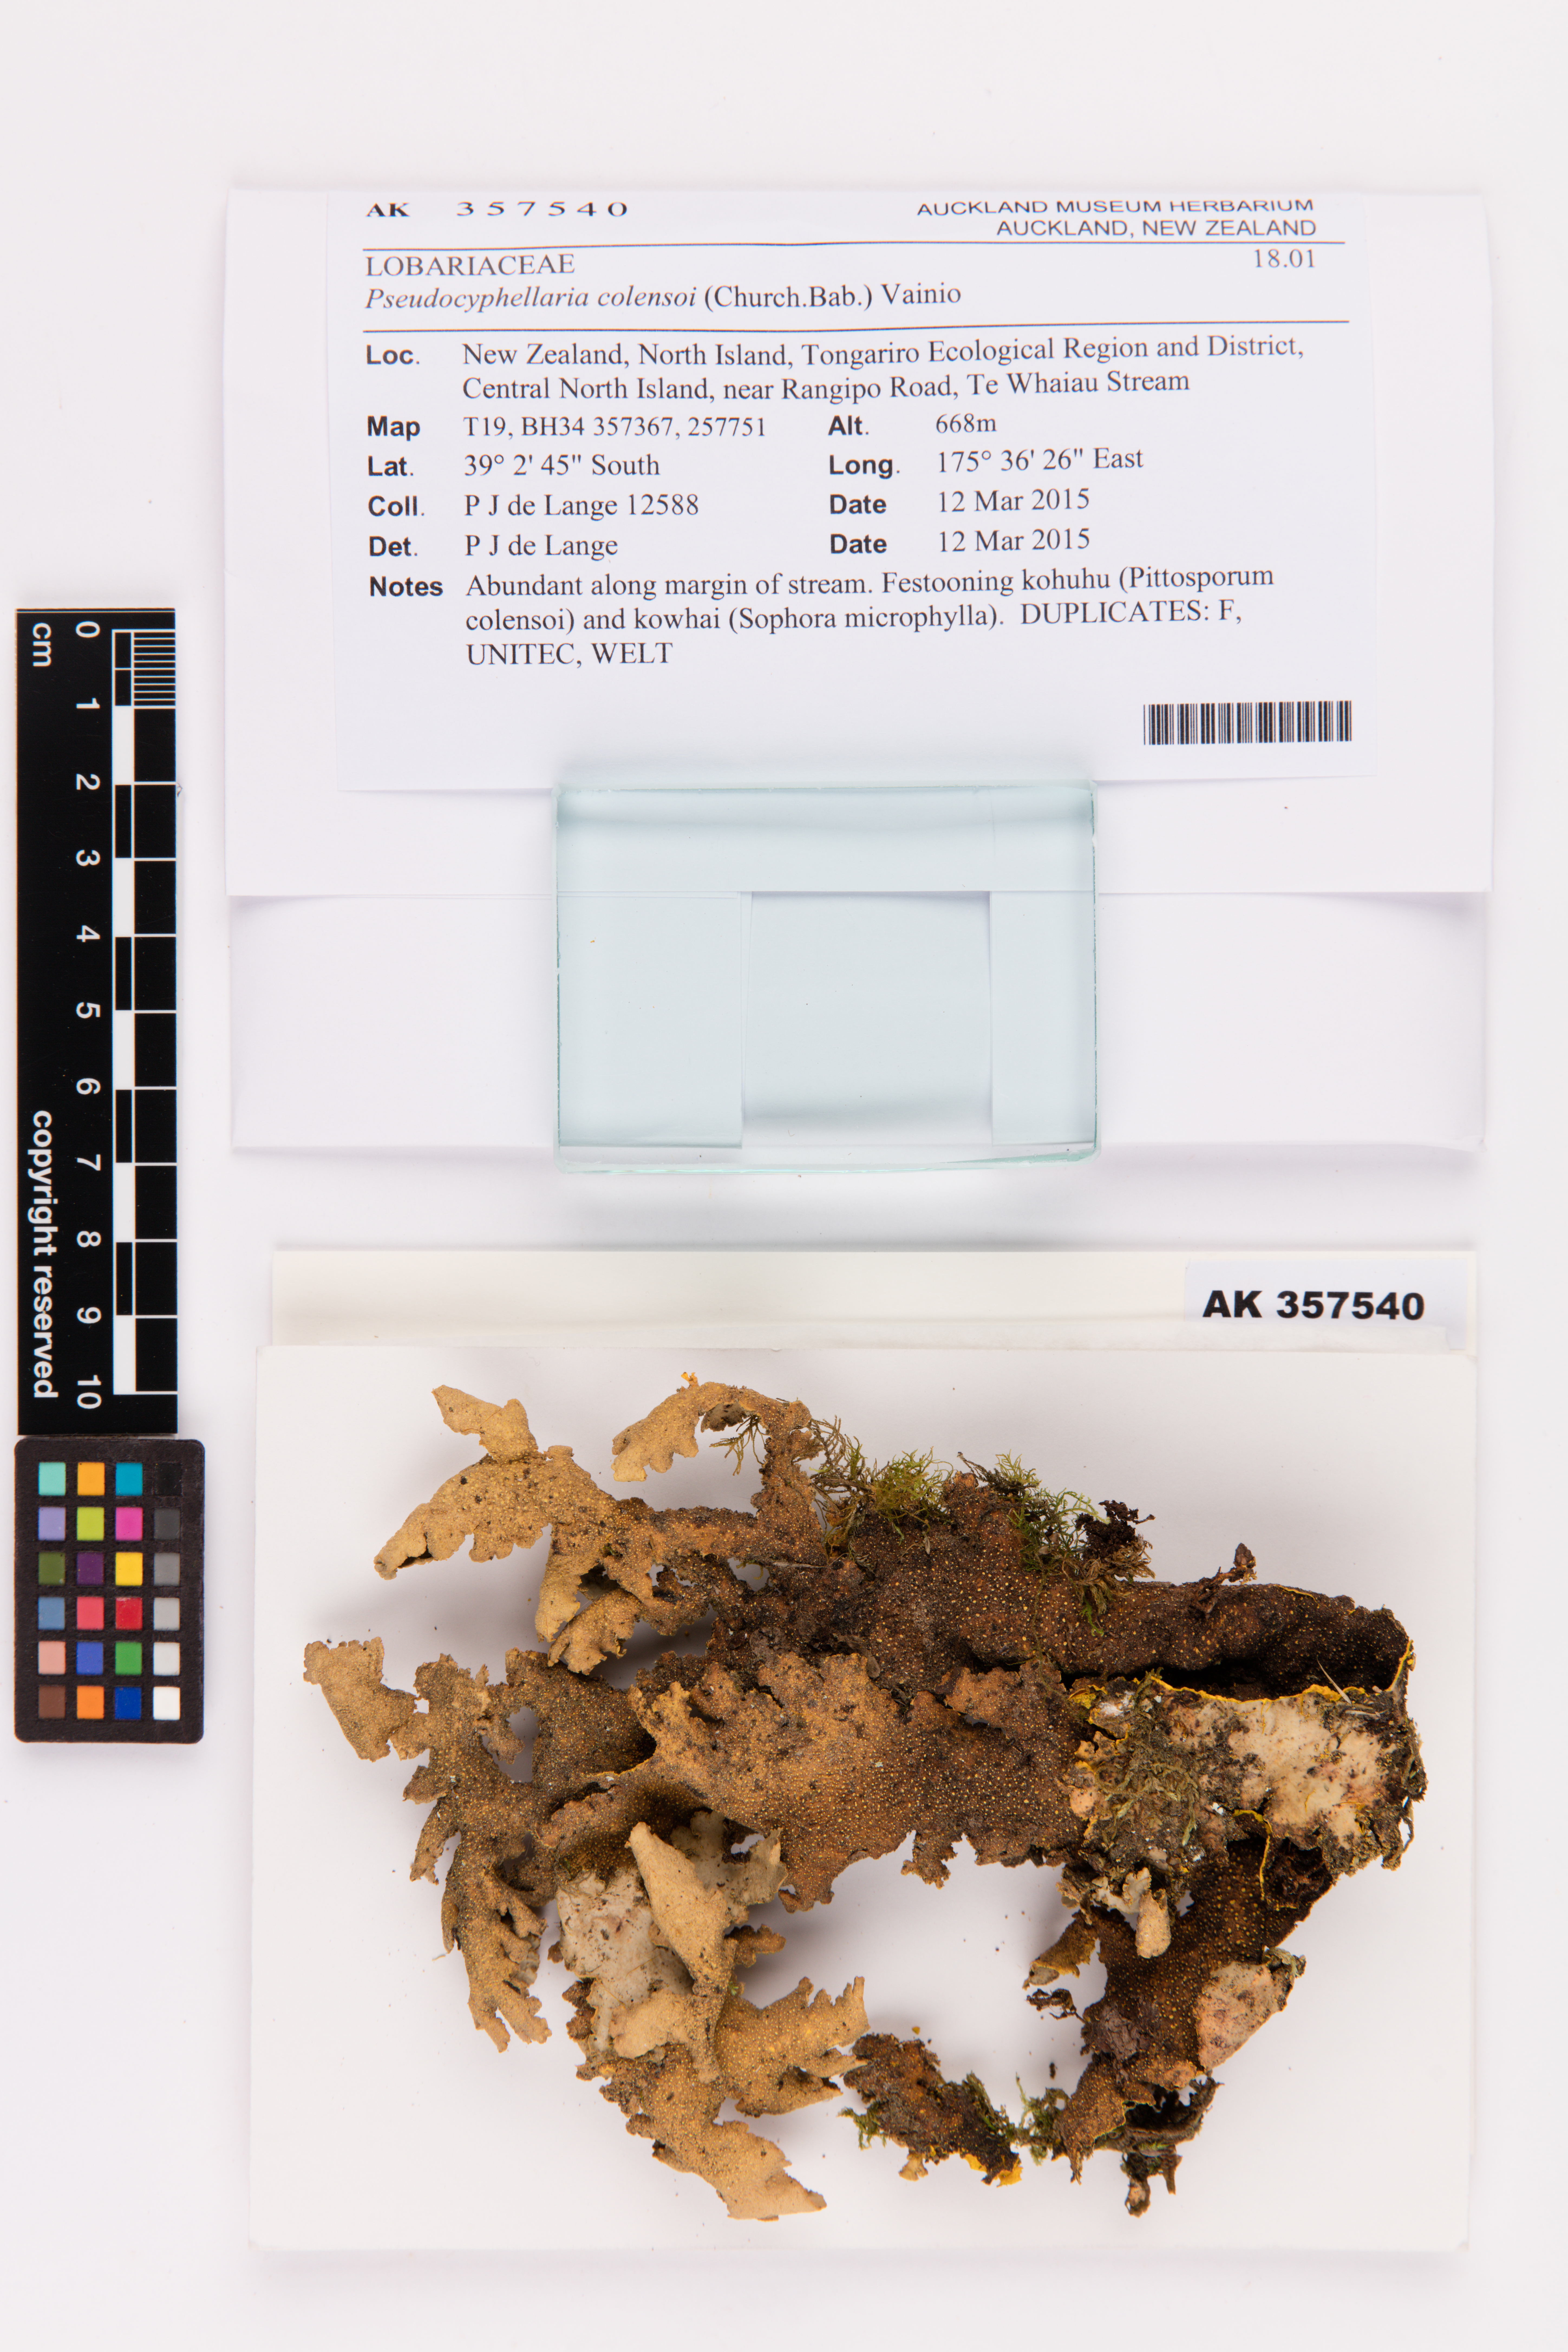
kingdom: Fungi
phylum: Ascomycota
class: Lecanoromycetes
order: Peltigerales
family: Lobariaceae
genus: Yarrumia
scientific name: Yarrumia colensoi
